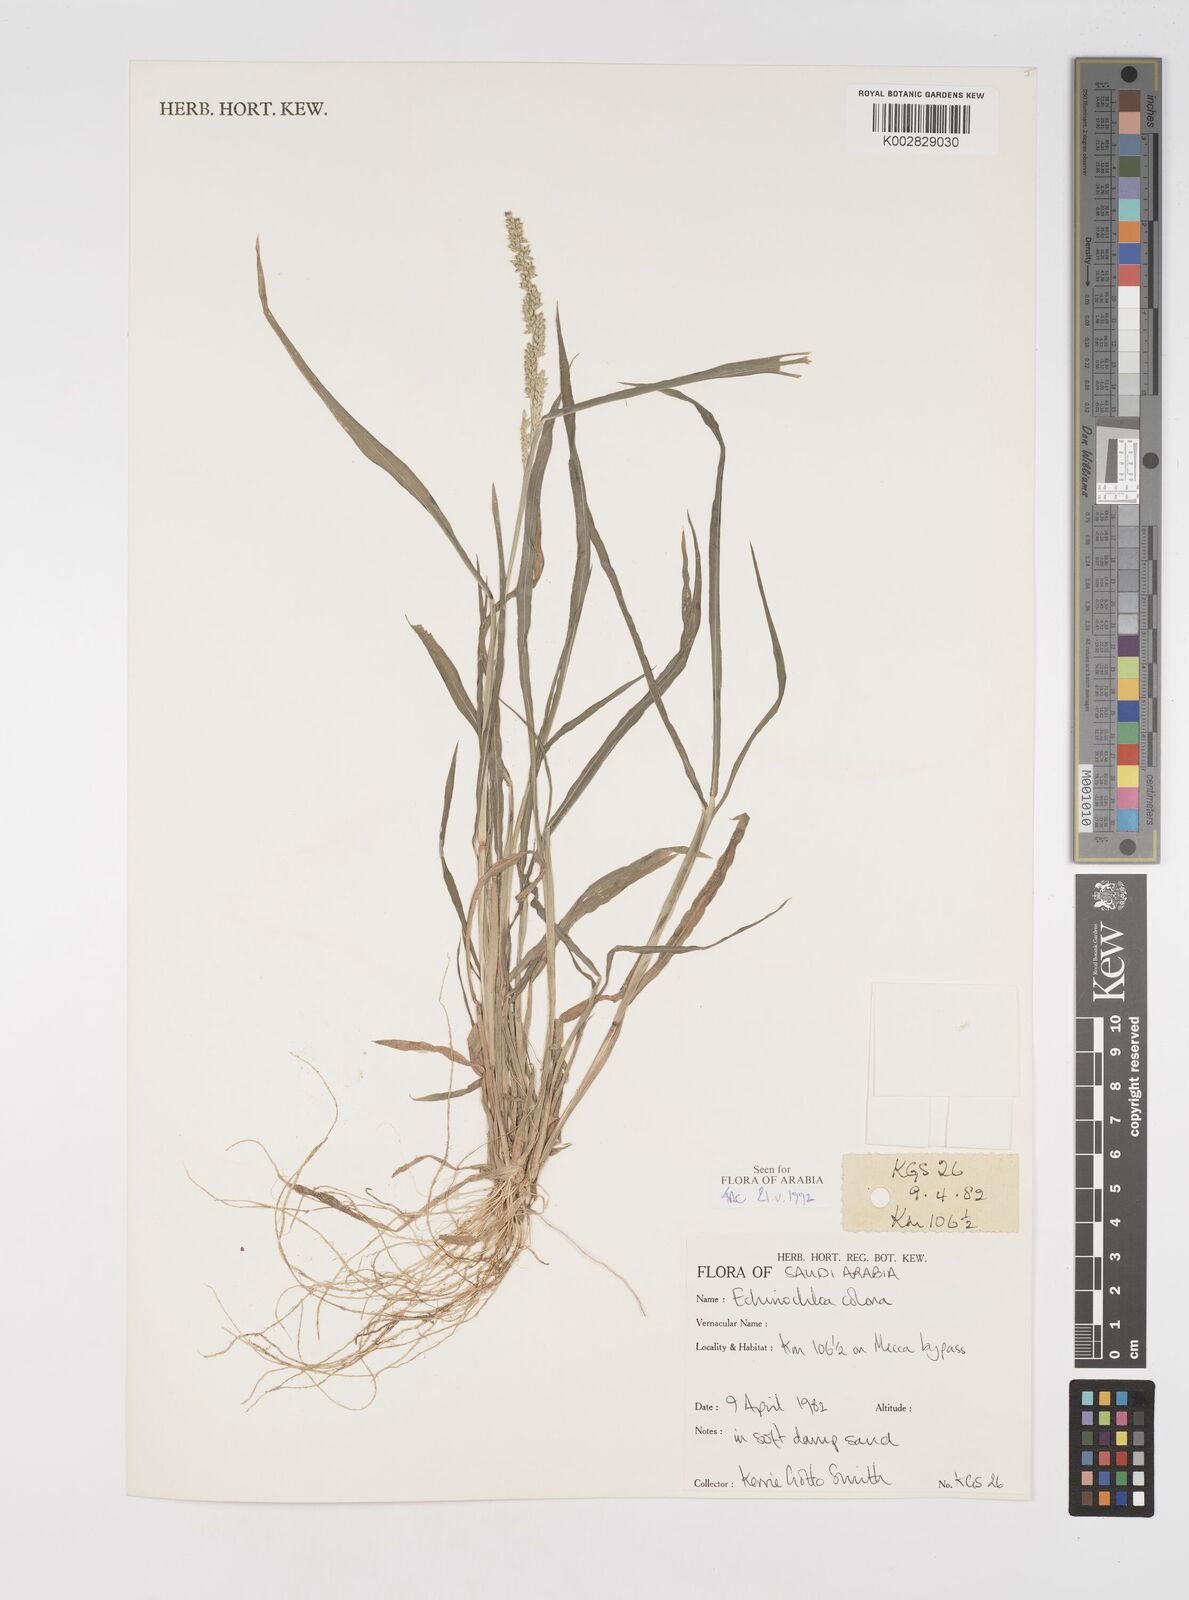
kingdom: Plantae
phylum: Tracheophyta
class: Liliopsida
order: Poales
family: Poaceae
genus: Echinochloa
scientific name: Echinochloa colonum
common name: Jungle rice
